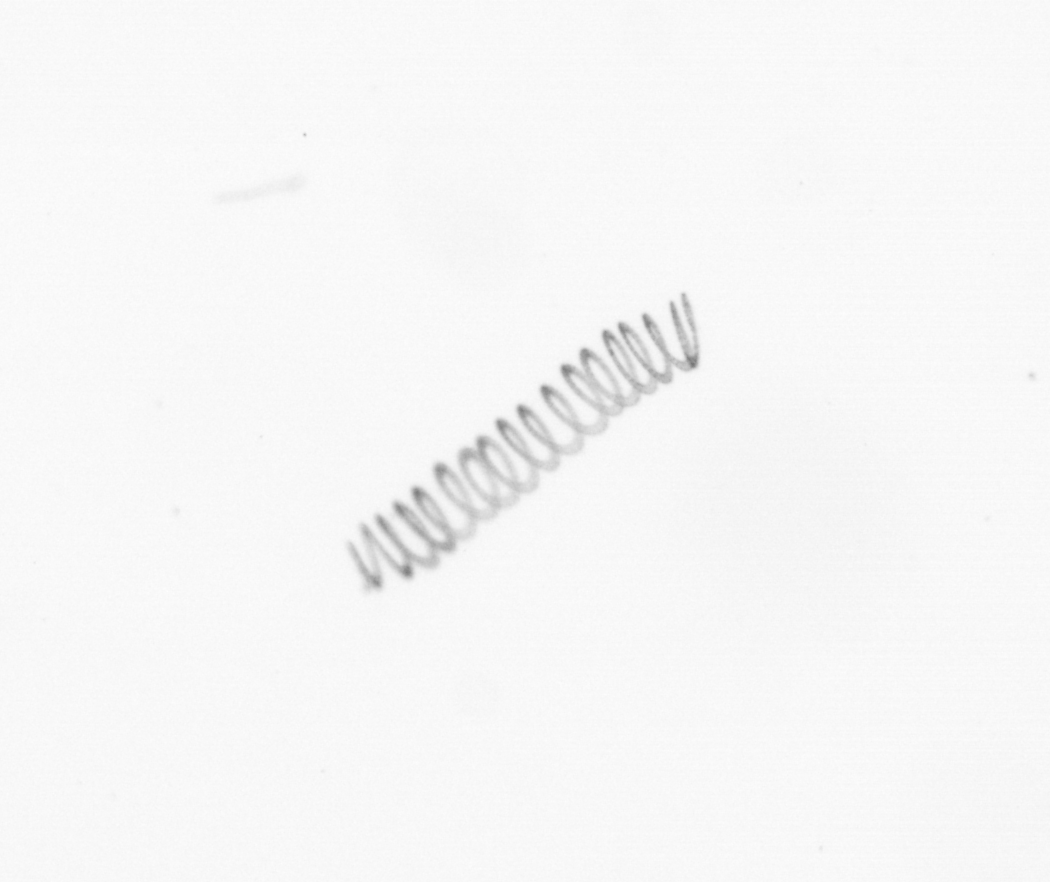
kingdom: Chromista
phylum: Ochrophyta
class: Bacillariophyceae
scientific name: Bacillariophyceae
